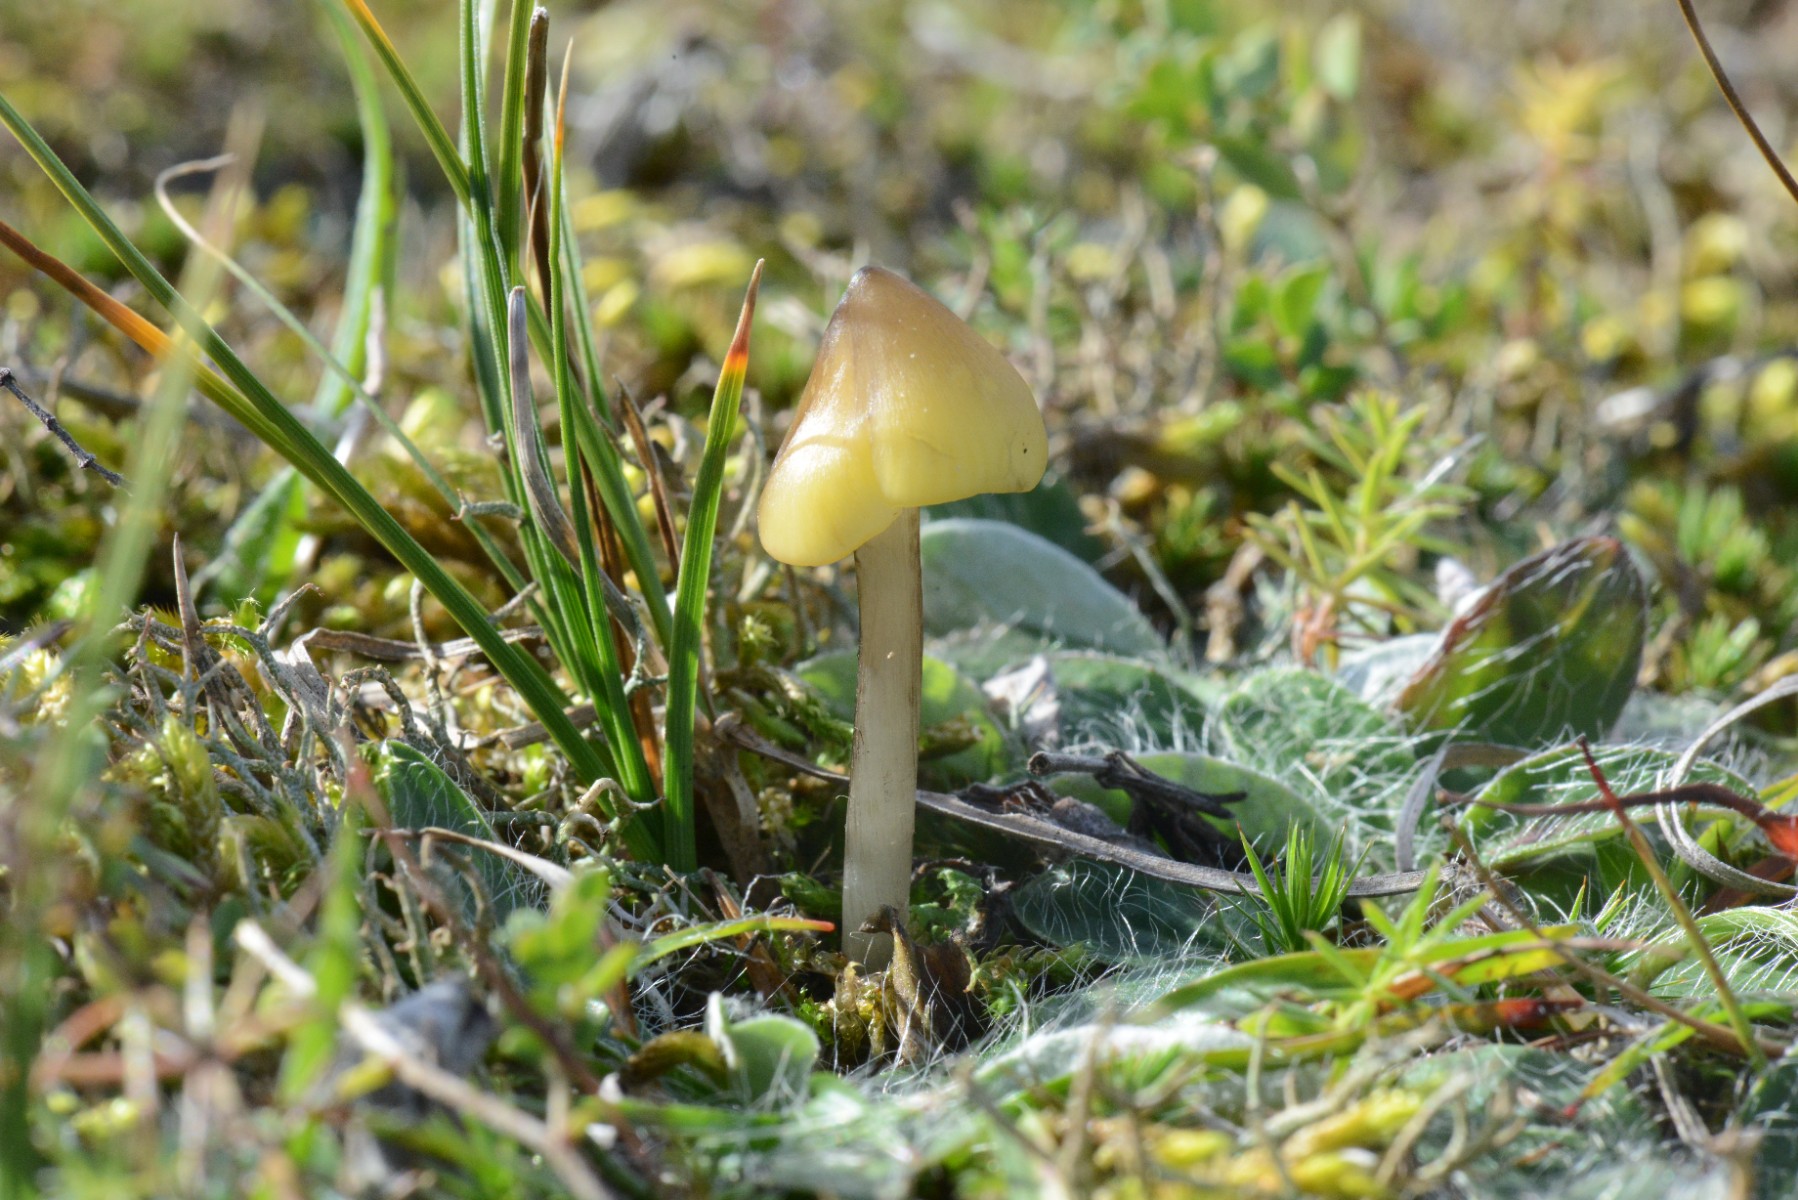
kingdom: Fungi
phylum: Basidiomycota
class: Agaricomycetes
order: Agaricales
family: Hygrophoraceae
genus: Hygrocybe
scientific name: Hygrocybe conica
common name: oliven-vokshat
